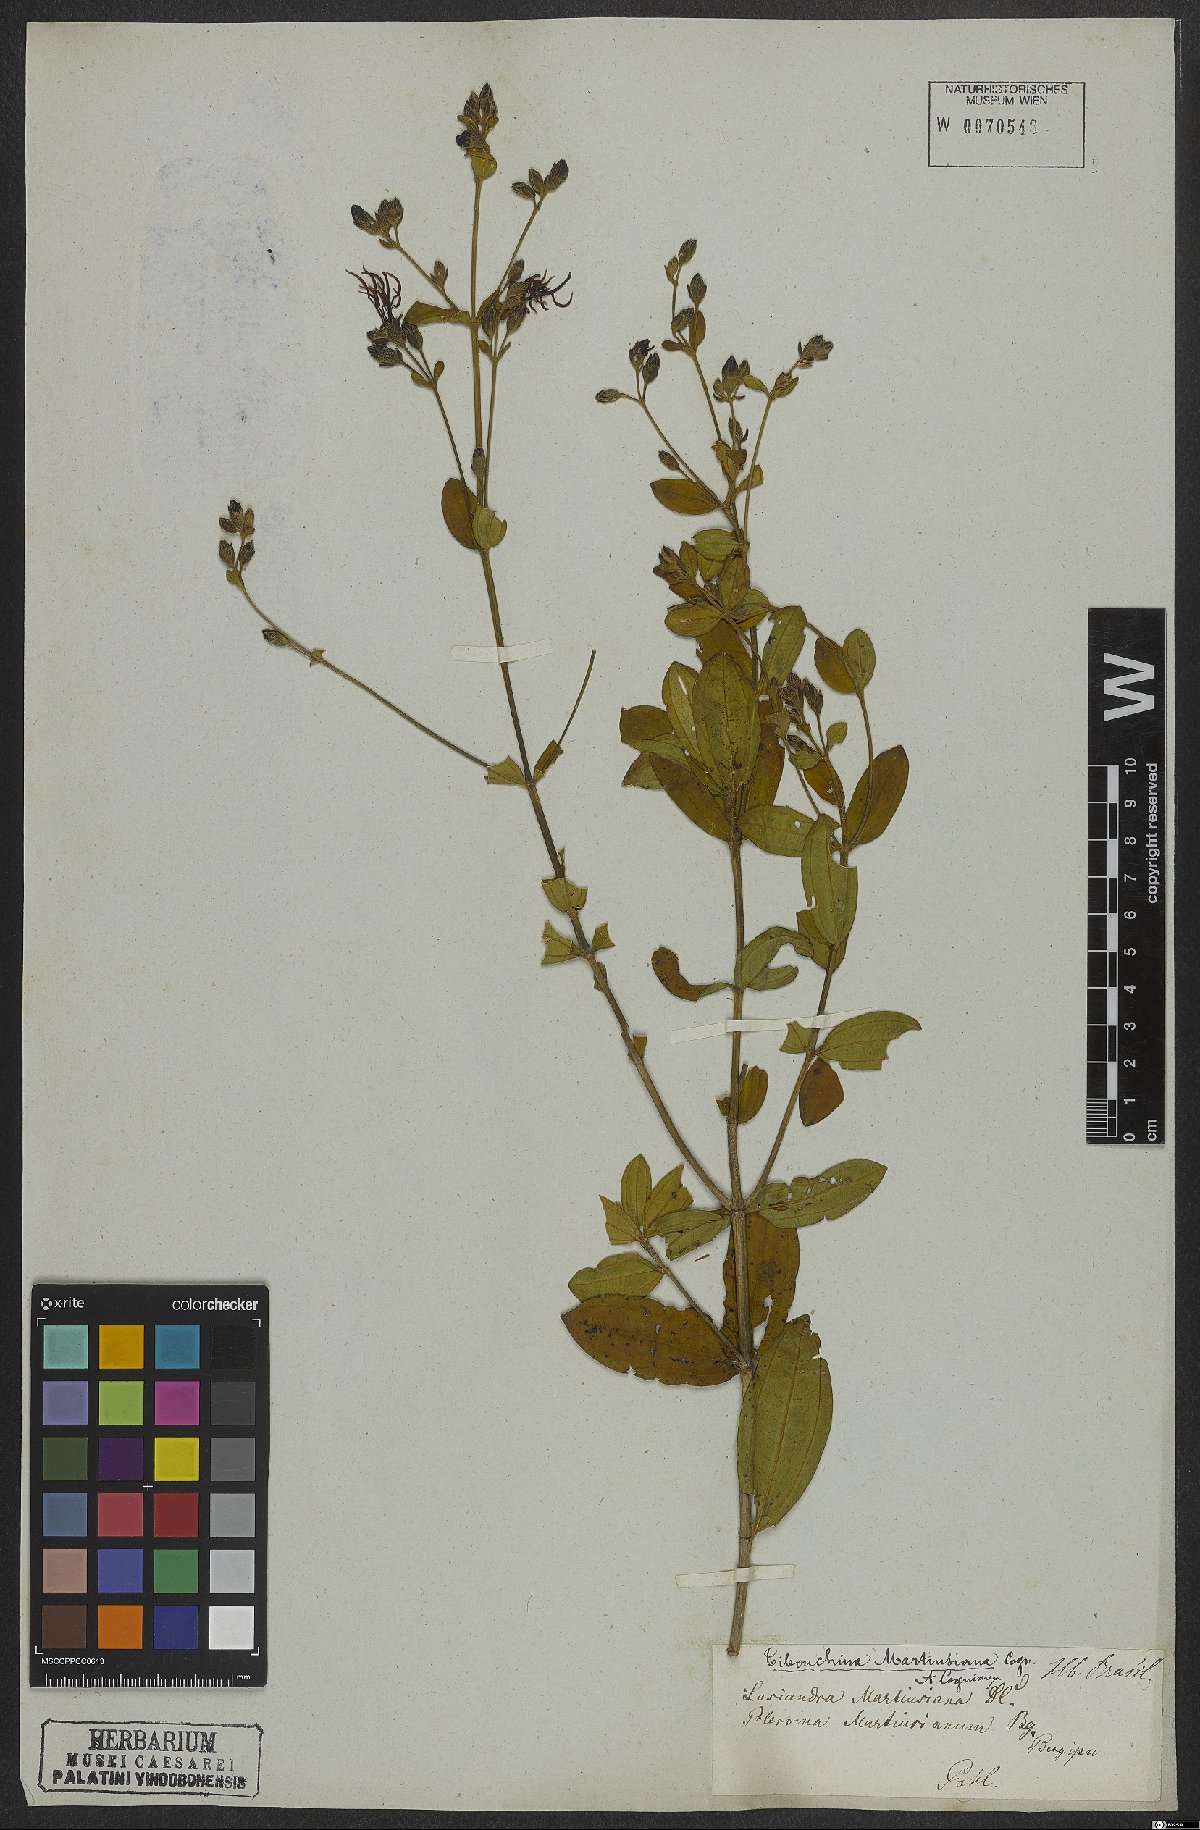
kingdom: Plantae
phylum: Tracheophyta
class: Magnoliopsida
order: Myrtales
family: Melastomataceae
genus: Pleroma
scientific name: Pleroma martiusianum
